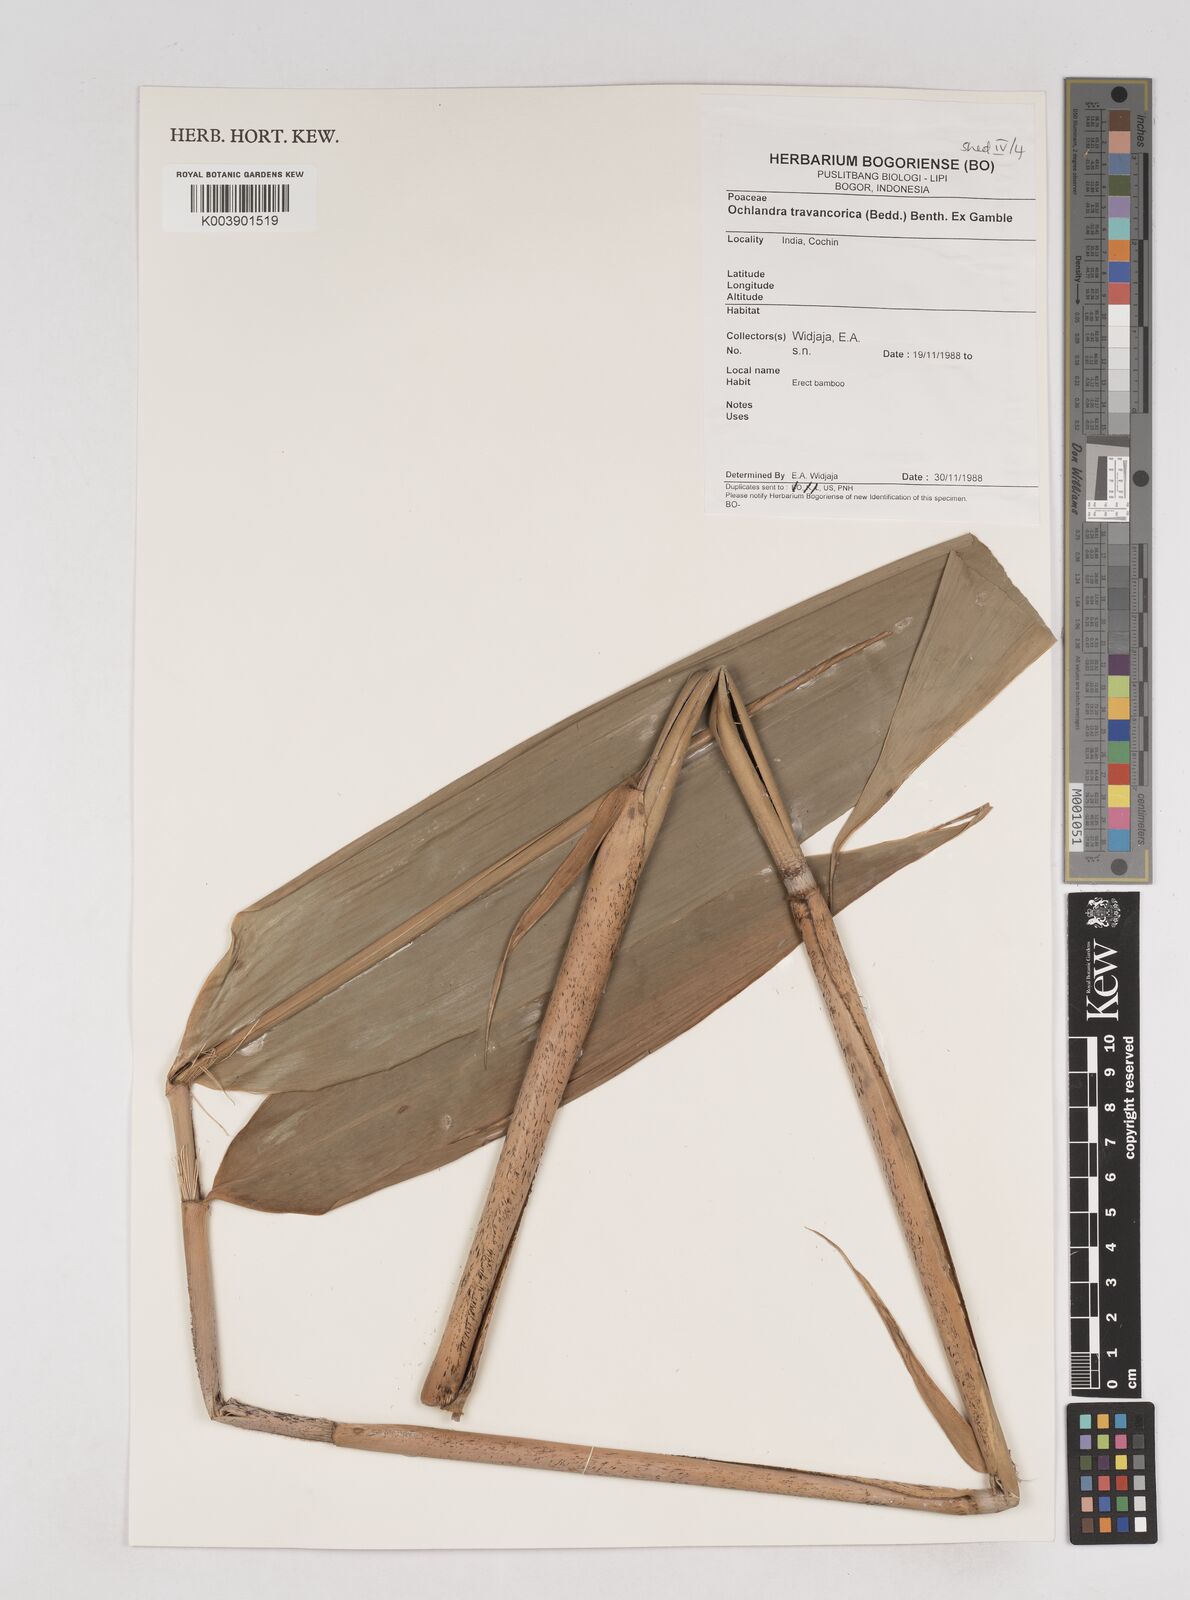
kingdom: Plantae
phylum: Tracheophyta
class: Liliopsida
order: Poales
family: Poaceae
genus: Ochlandra
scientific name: Ochlandra travancorica
